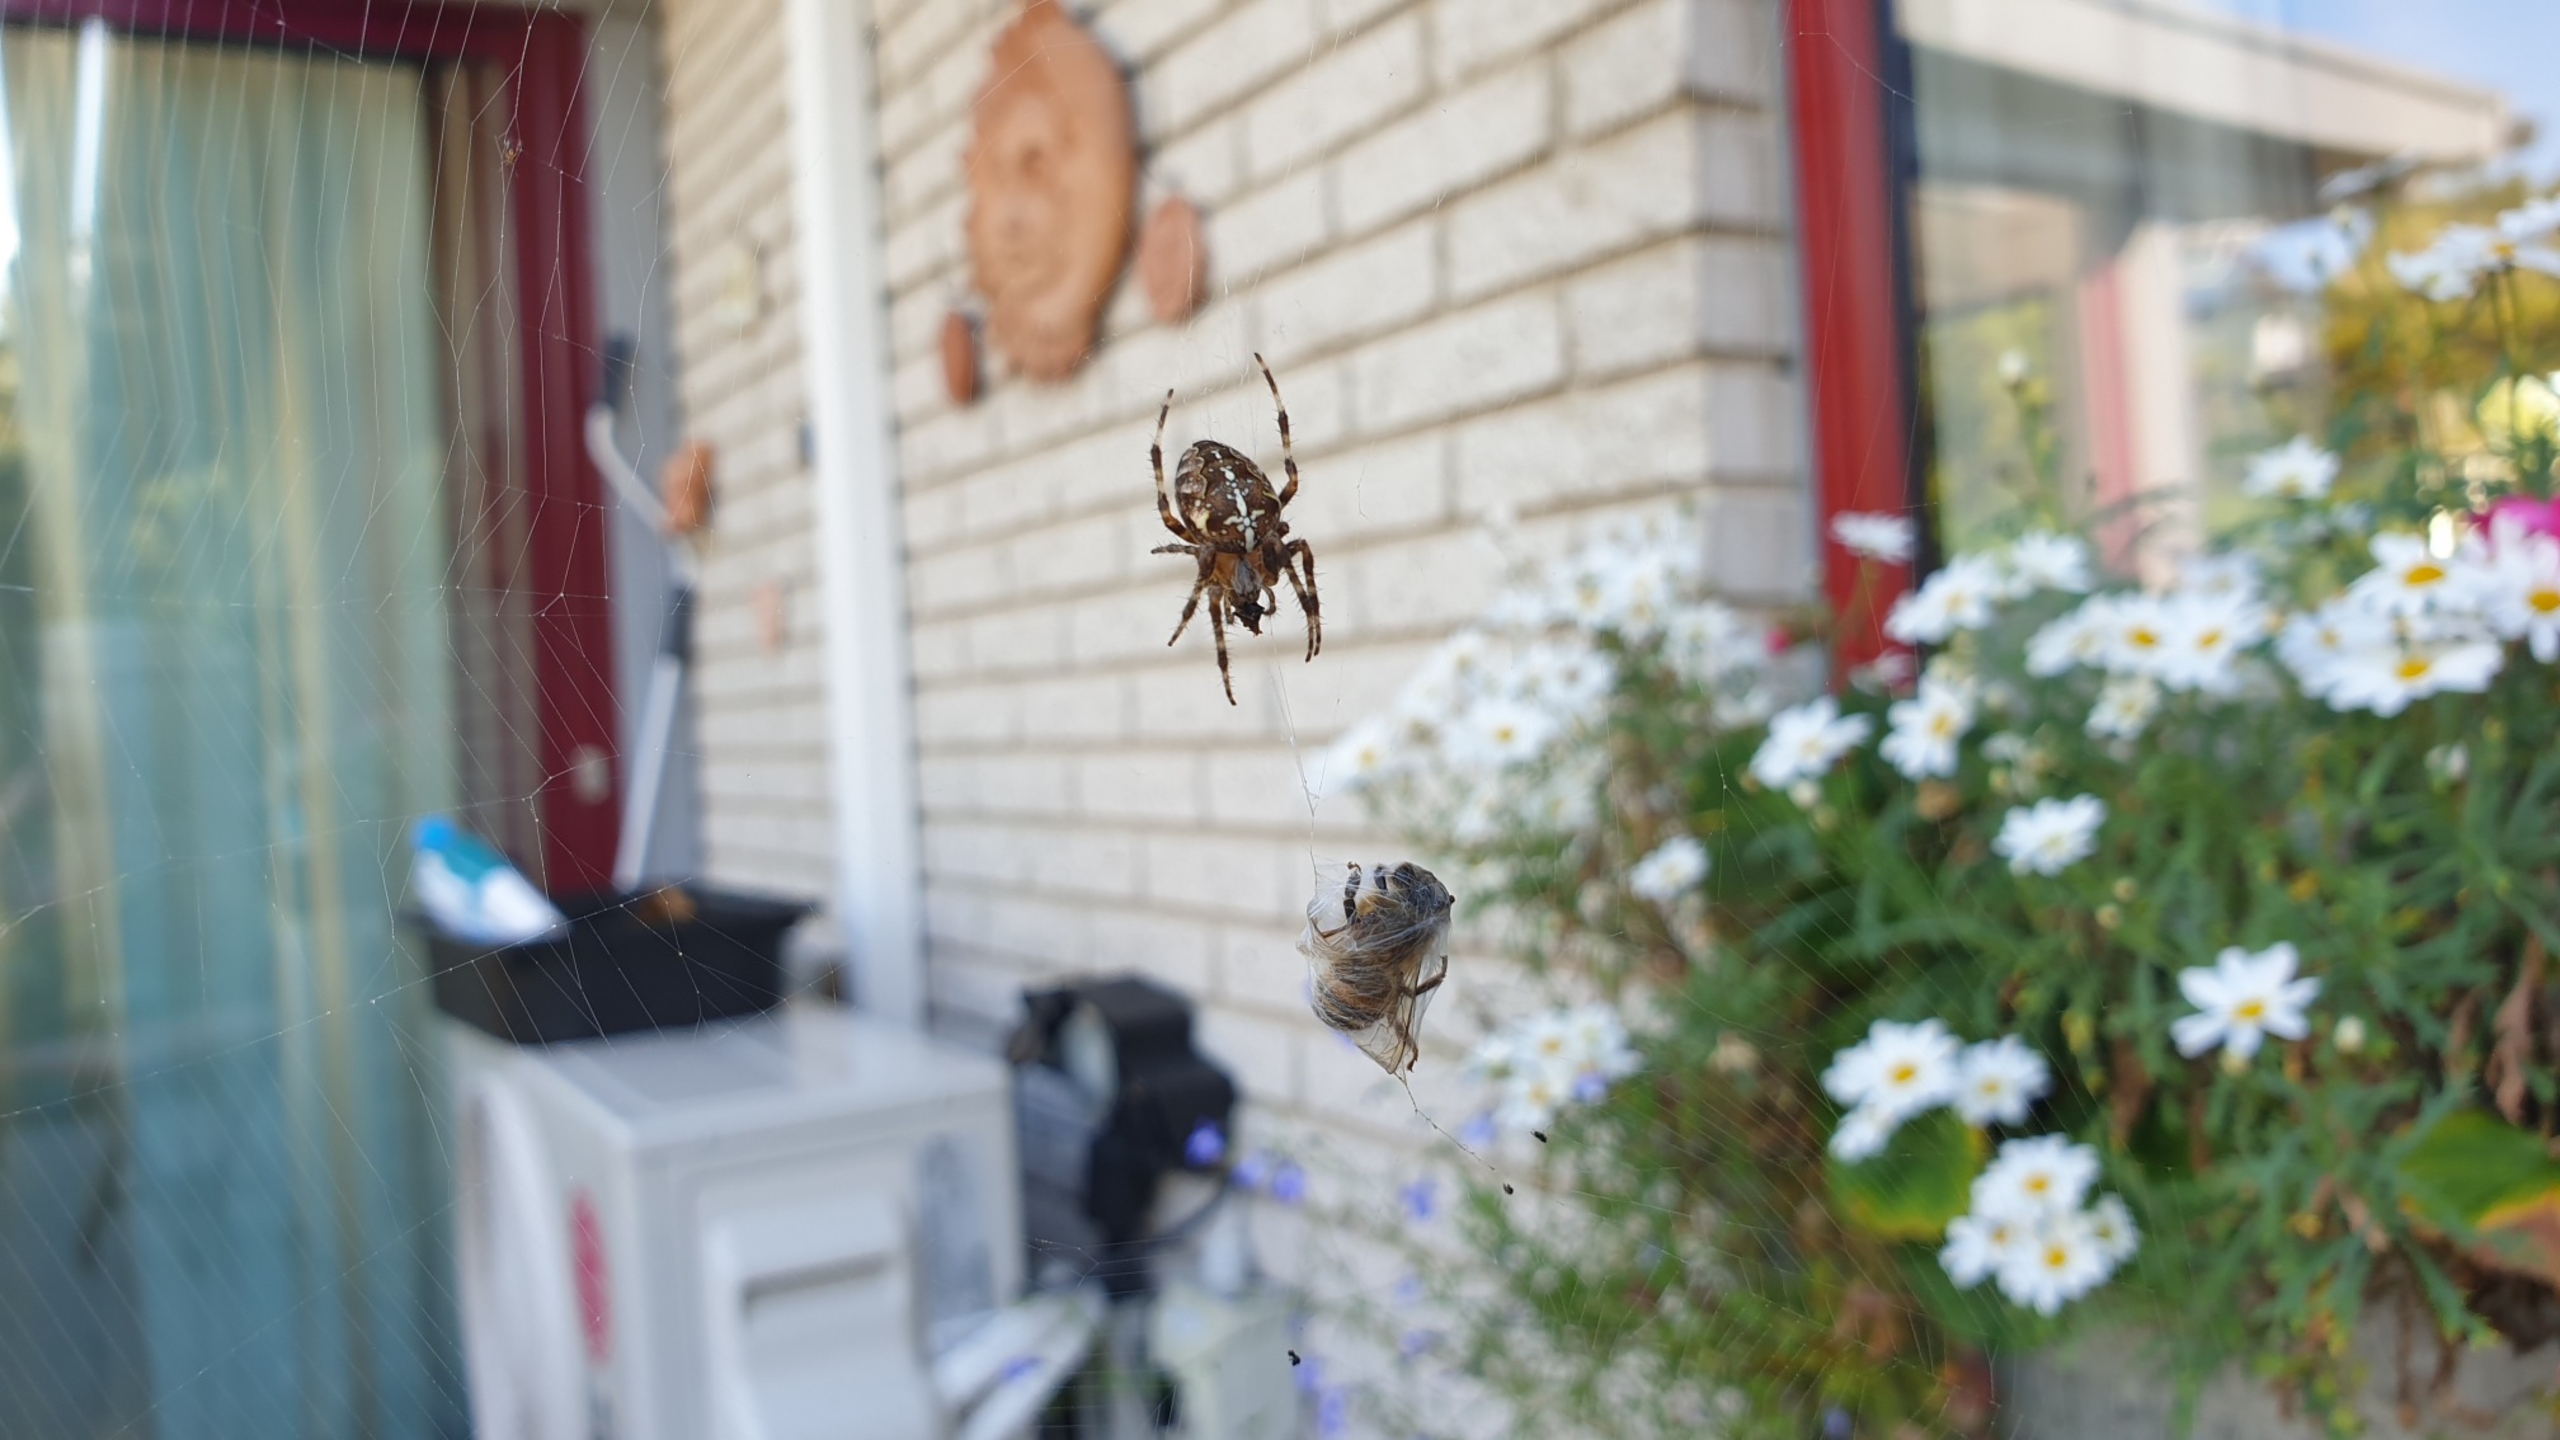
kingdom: Animalia
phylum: Arthropoda
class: Arachnida
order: Araneae
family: Araneidae
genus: Araneus
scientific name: Araneus diadematus
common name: Korsedderkop
